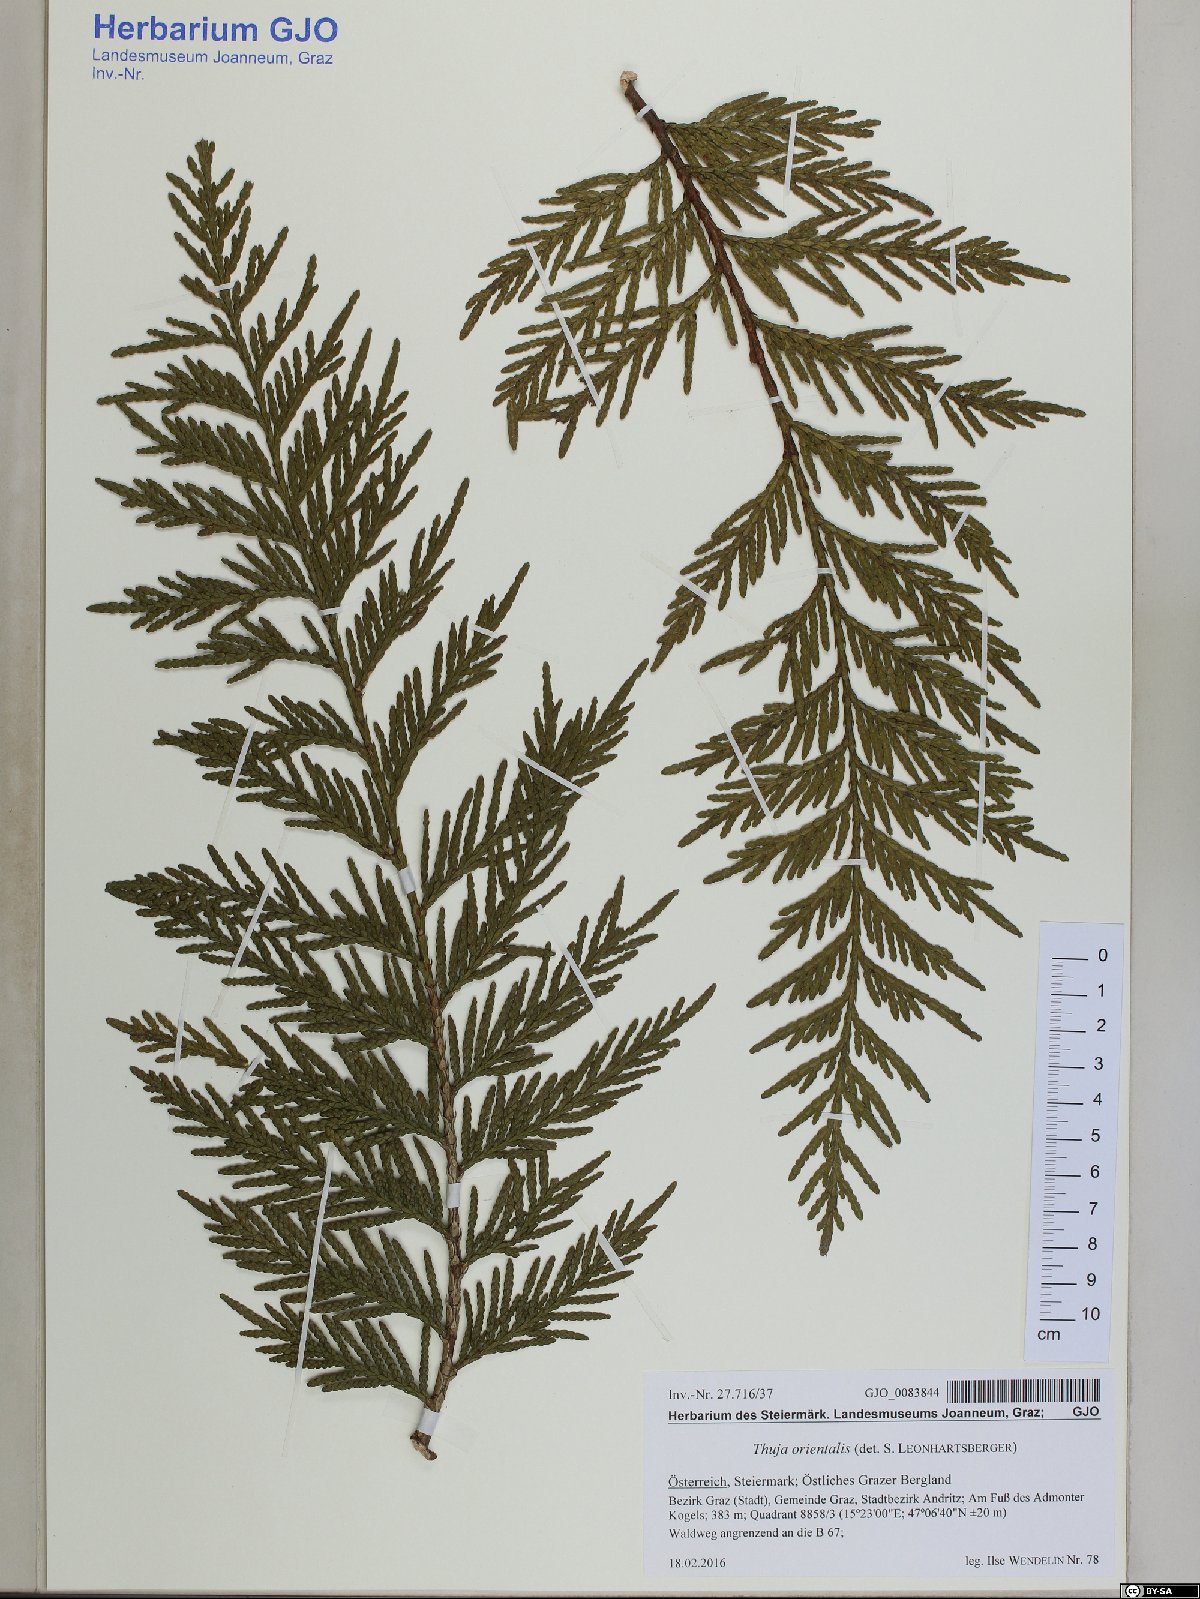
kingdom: Plantae
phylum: Tracheophyta
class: Pinopsida
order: Pinales
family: Cupressaceae
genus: Platycladus
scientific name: Platycladus orientalis
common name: Chinese thuja
